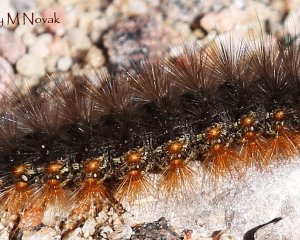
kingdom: Animalia
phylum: Arthropoda
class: Insecta
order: Lepidoptera
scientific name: Lepidoptera
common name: Butterflies
